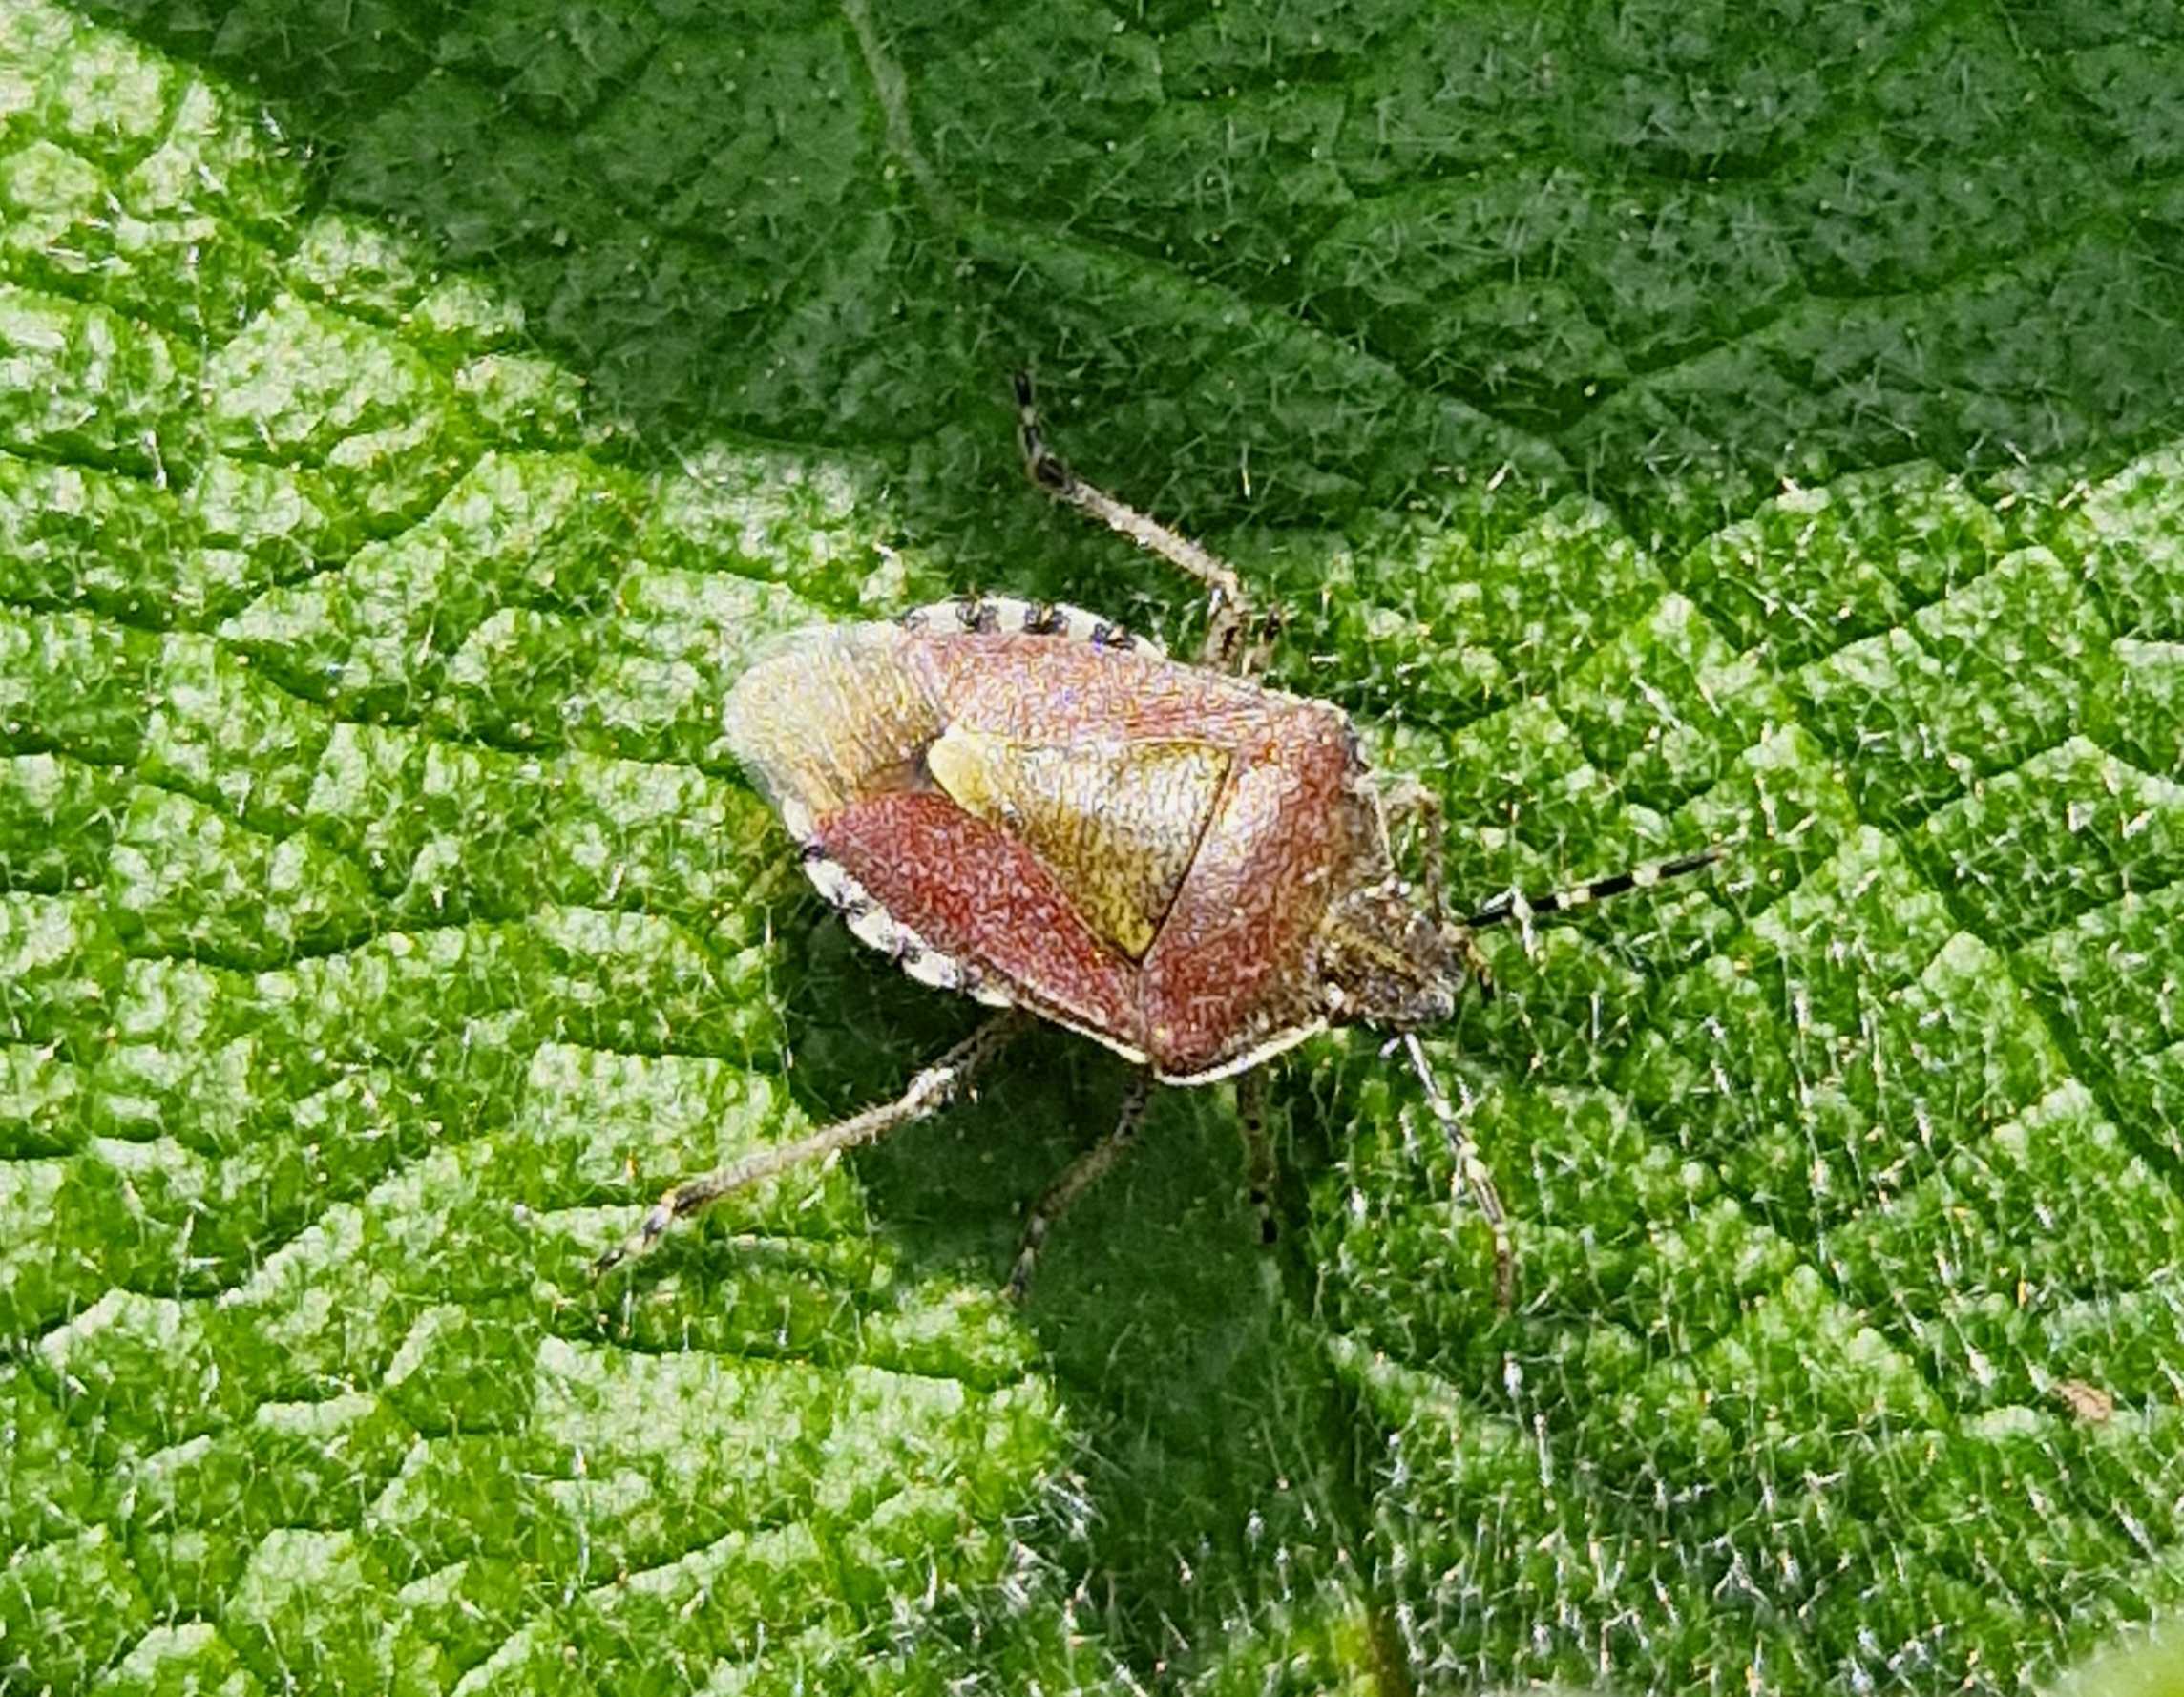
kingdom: Animalia
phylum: Arthropoda
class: Insecta
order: Hemiptera
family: Pentatomidae
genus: Dolycoris
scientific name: Dolycoris baccarum
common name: Almindelig bærtæge
